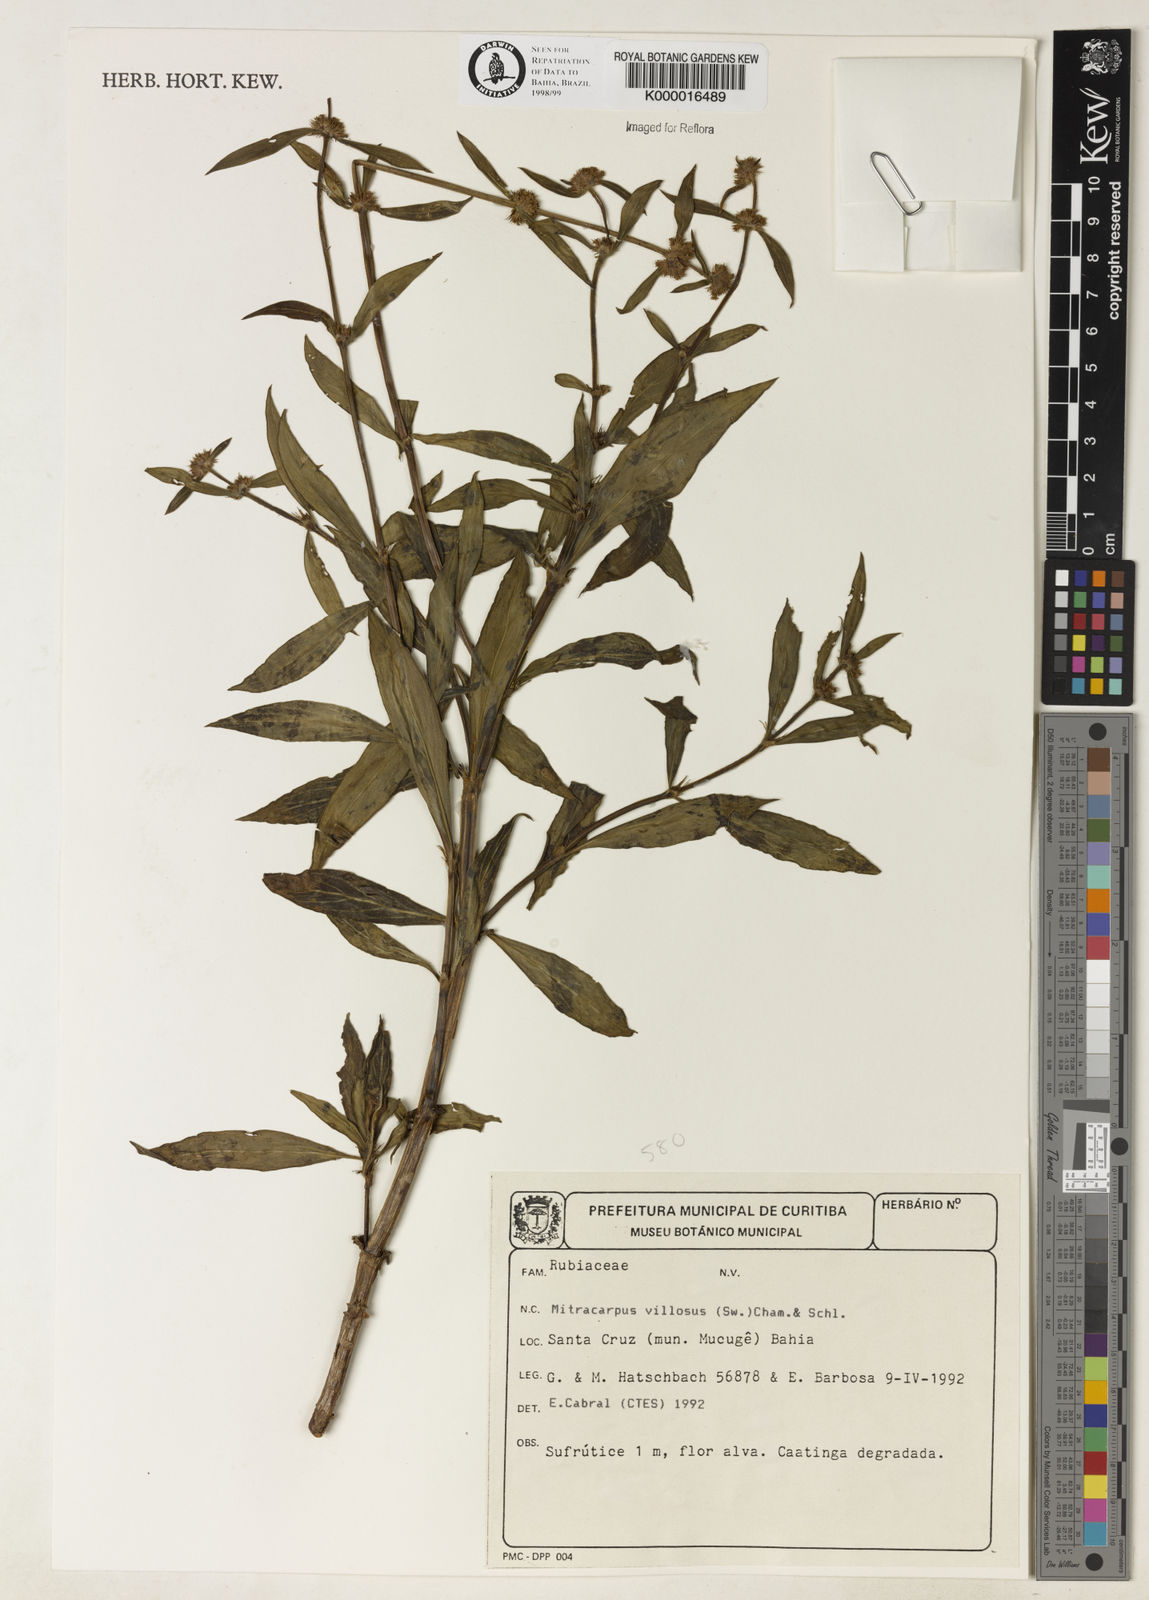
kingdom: Plantae
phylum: Tracheophyta
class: Magnoliopsida
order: Gentianales
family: Rubiaceae
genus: Mitracarpus
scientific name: Mitracarpus
